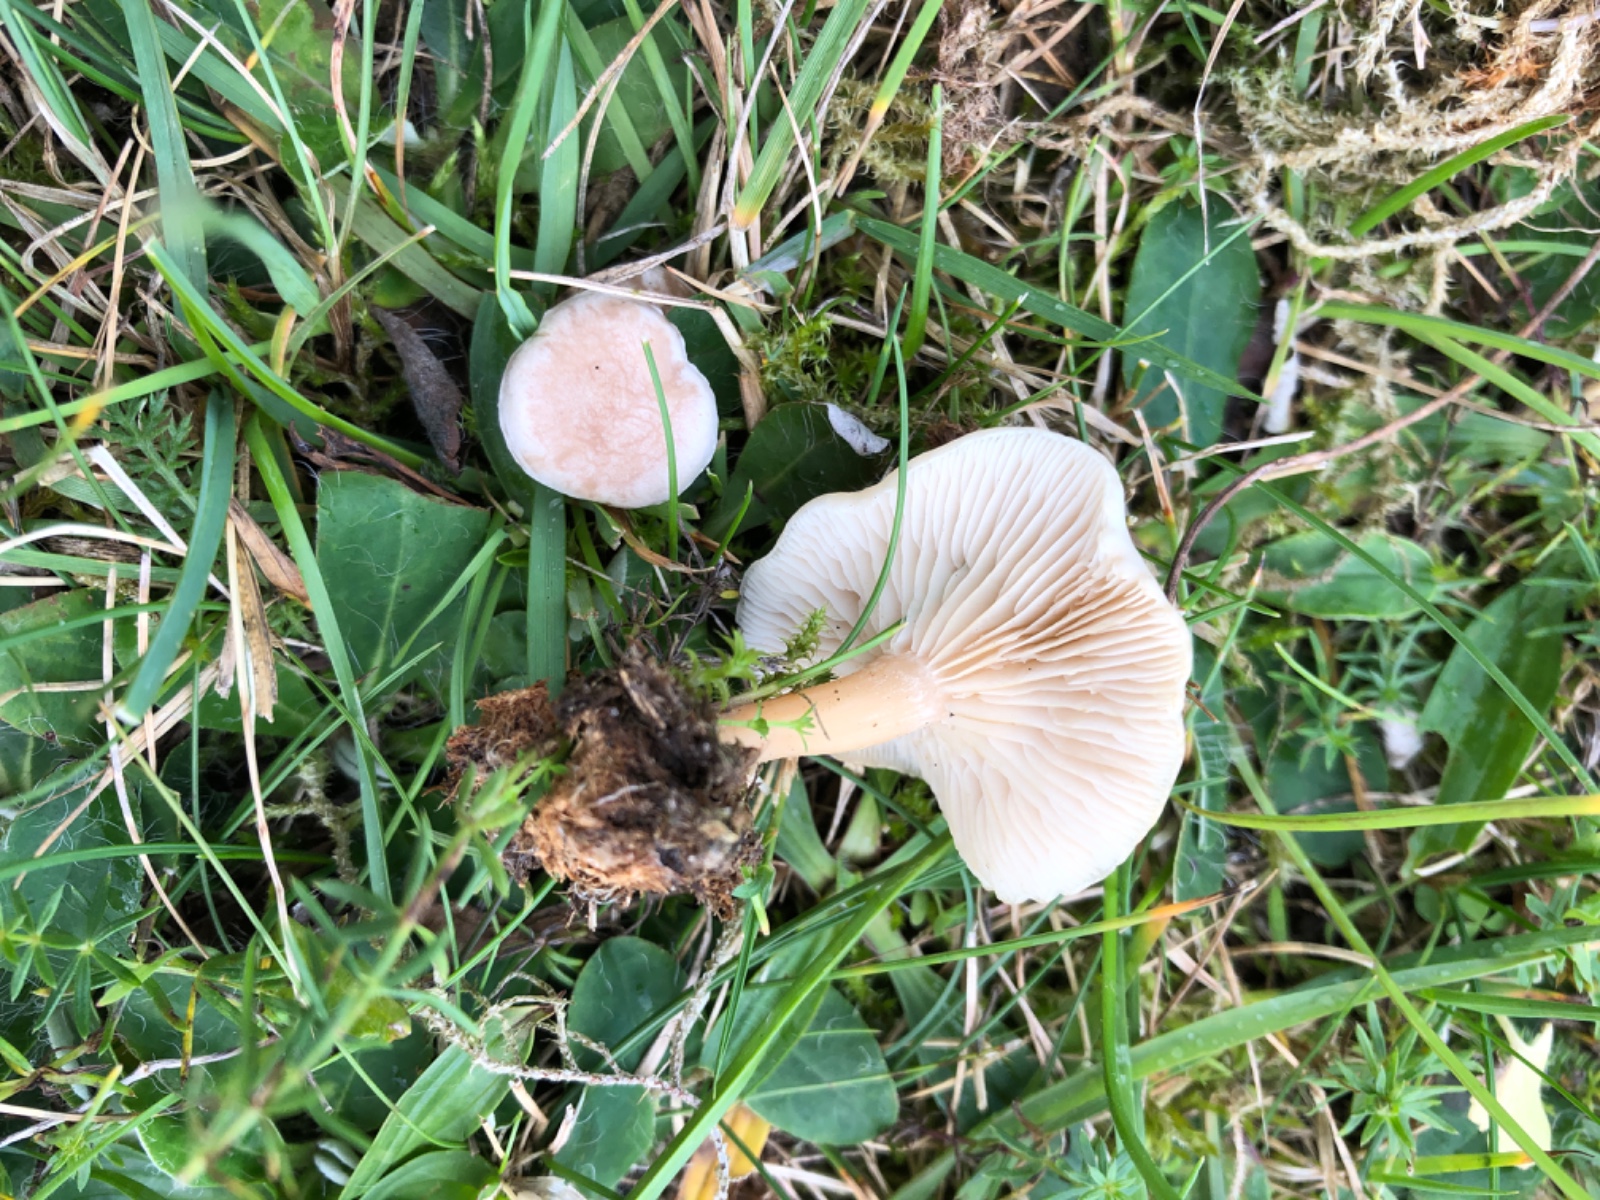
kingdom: Fungi
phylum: Basidiomycota
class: Agaricomycetes
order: Agaricales
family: Tricholomataceae
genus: Clitocybe
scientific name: Clitocybe rivulosa
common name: eng-tragthat
